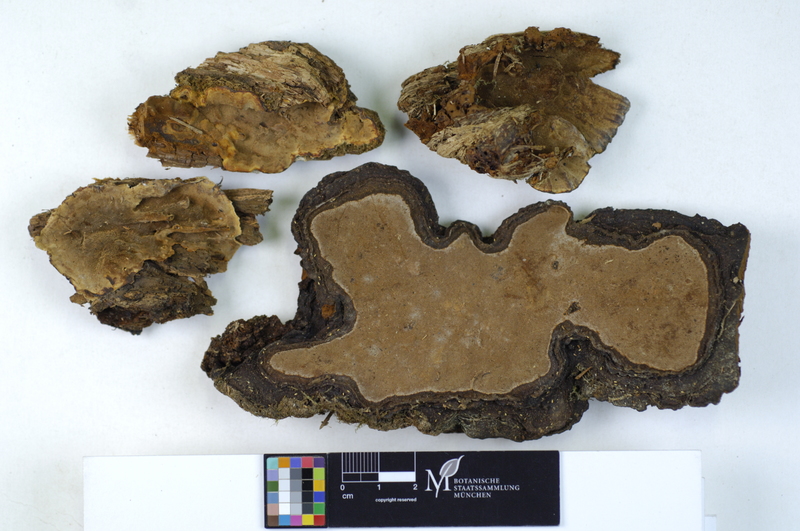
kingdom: Plantae
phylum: Tracheophyta
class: Pinopsida
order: Pinales
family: Pinaceae
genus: Picea
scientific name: Picea
